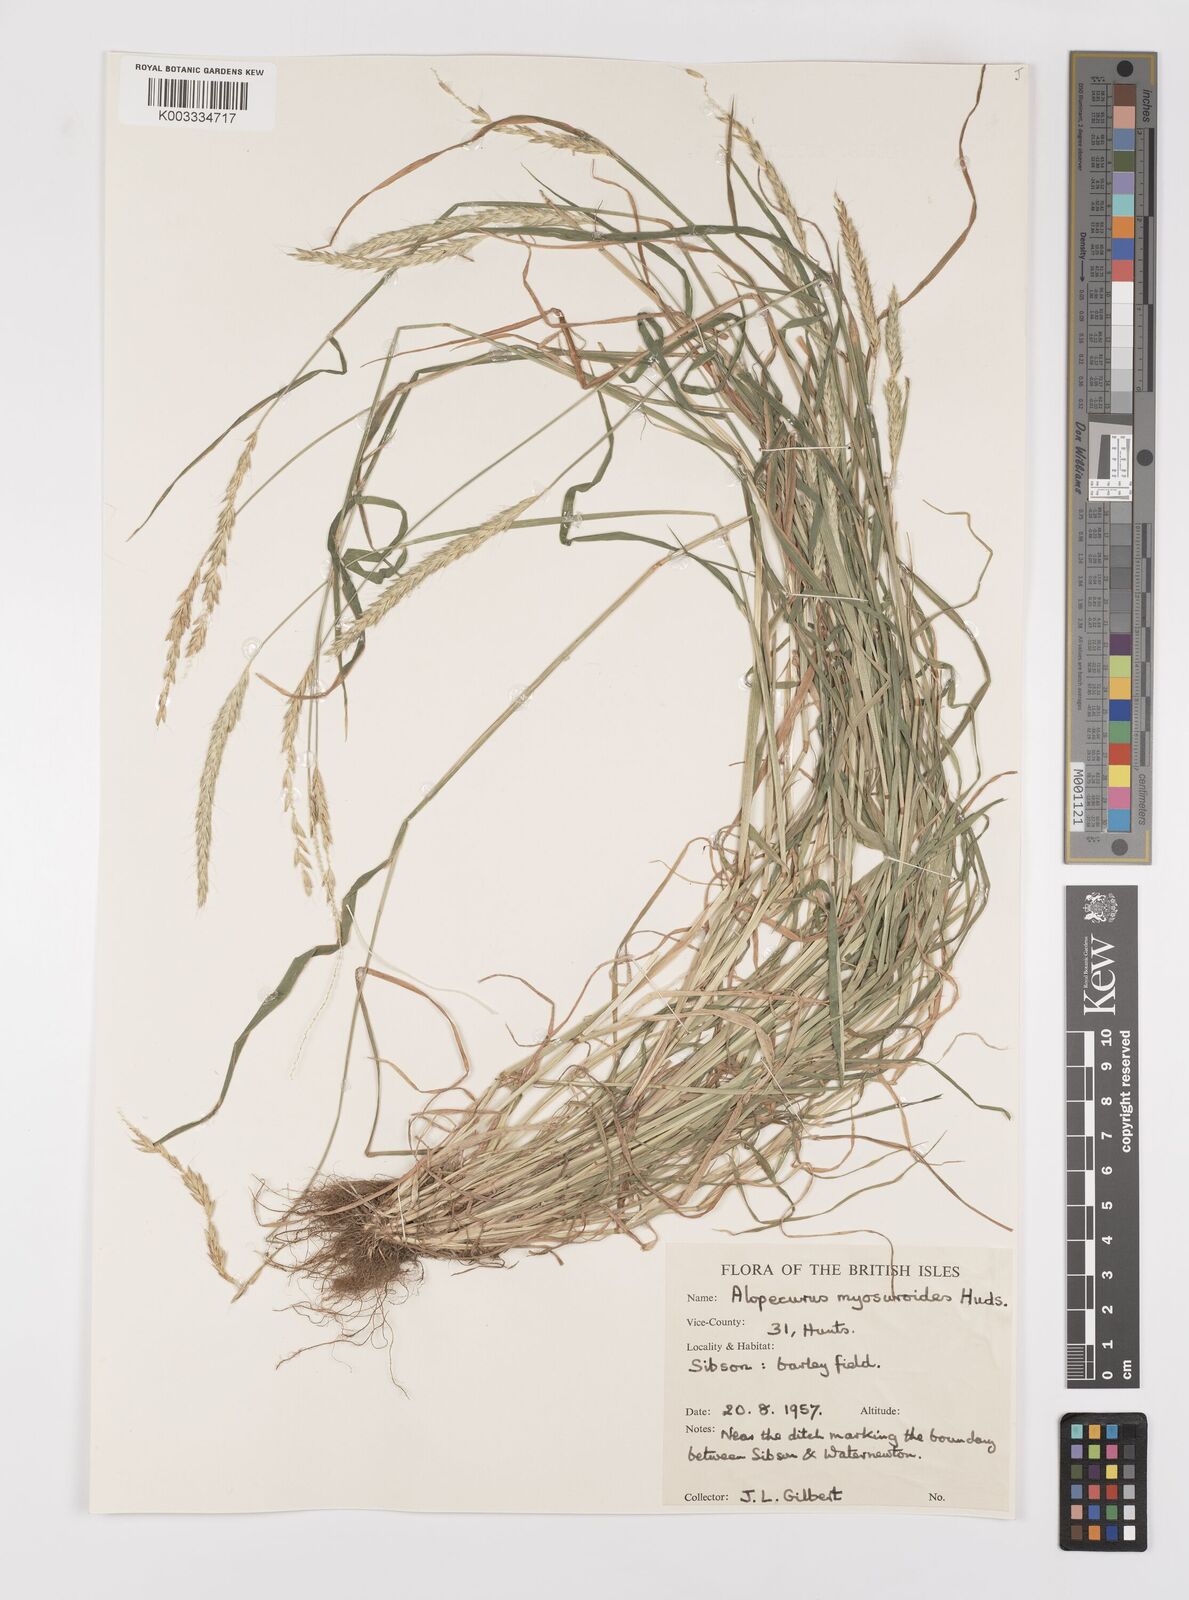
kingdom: Plantae
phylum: Tracheophyta
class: Liliopsida
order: Poales
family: Poaceae
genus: Alopecurus
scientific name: Alopecurus myosuroides
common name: Black-grass
